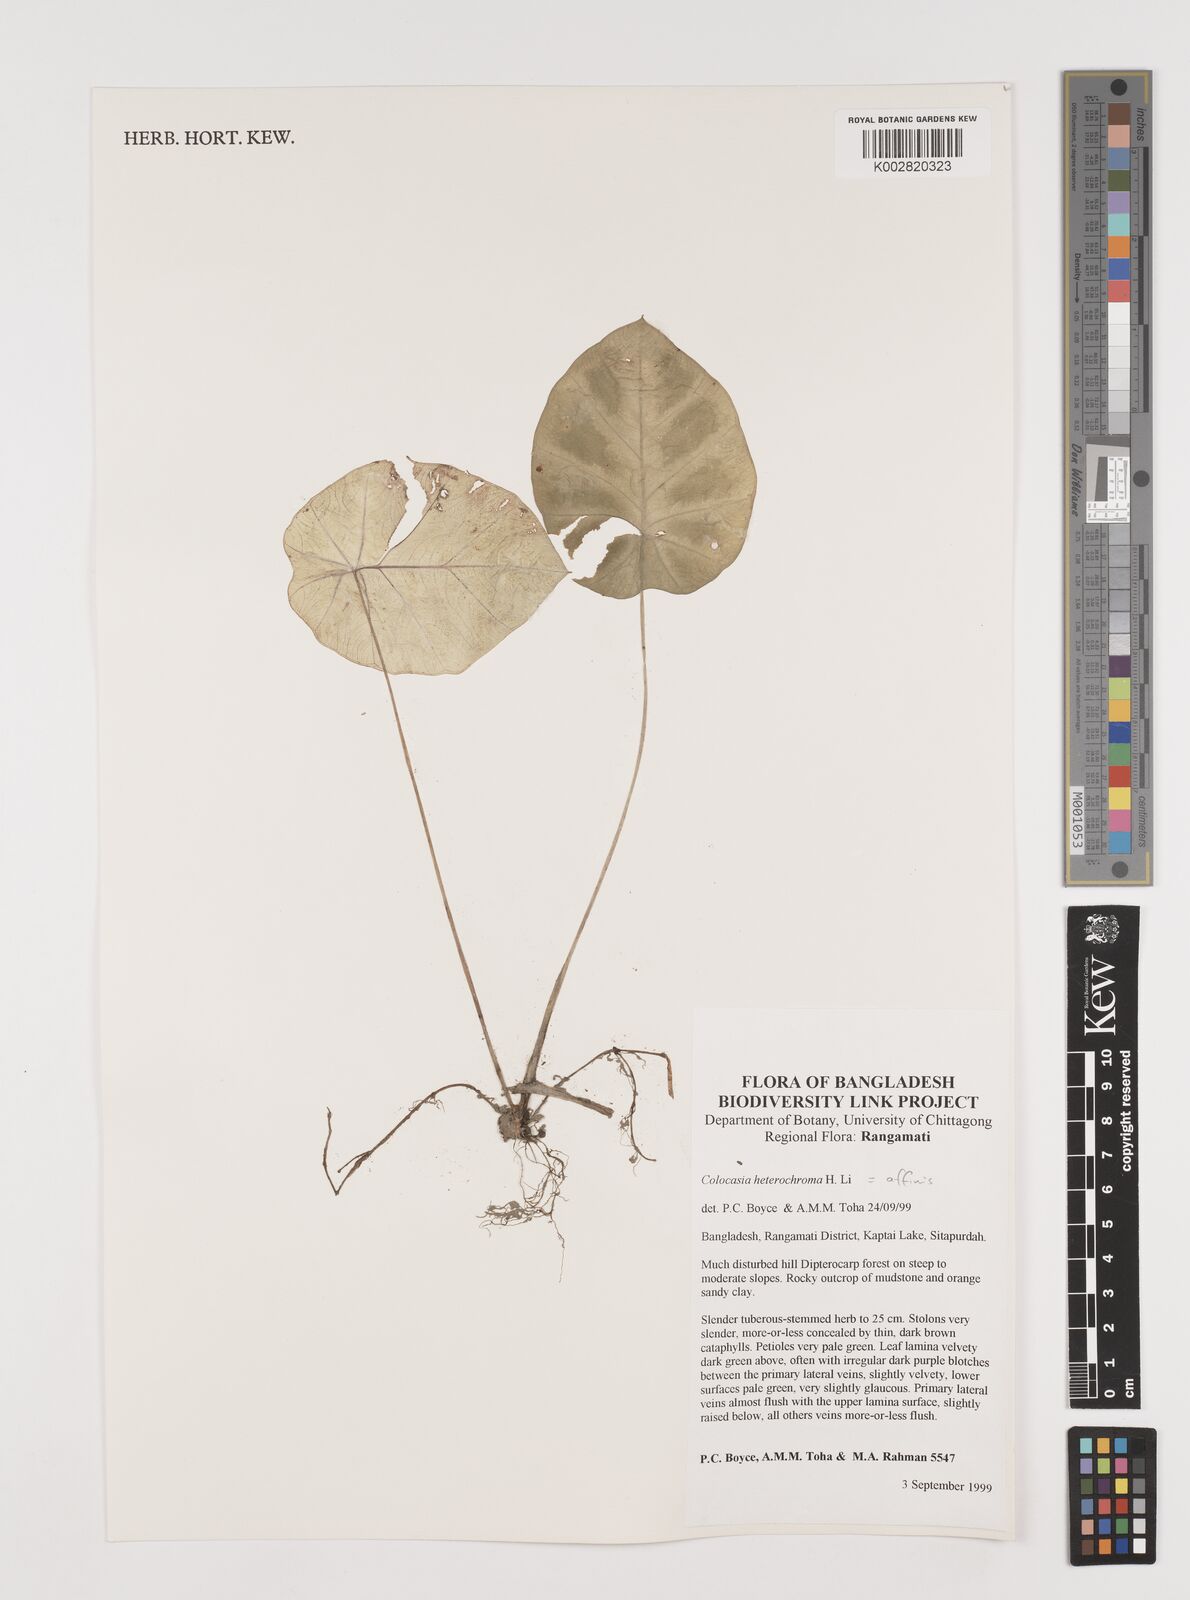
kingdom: Plantae
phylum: Tracheophyta
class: Liliopsida
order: Alismatales
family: Araceae
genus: Colocasia
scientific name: Colocasia affinis
